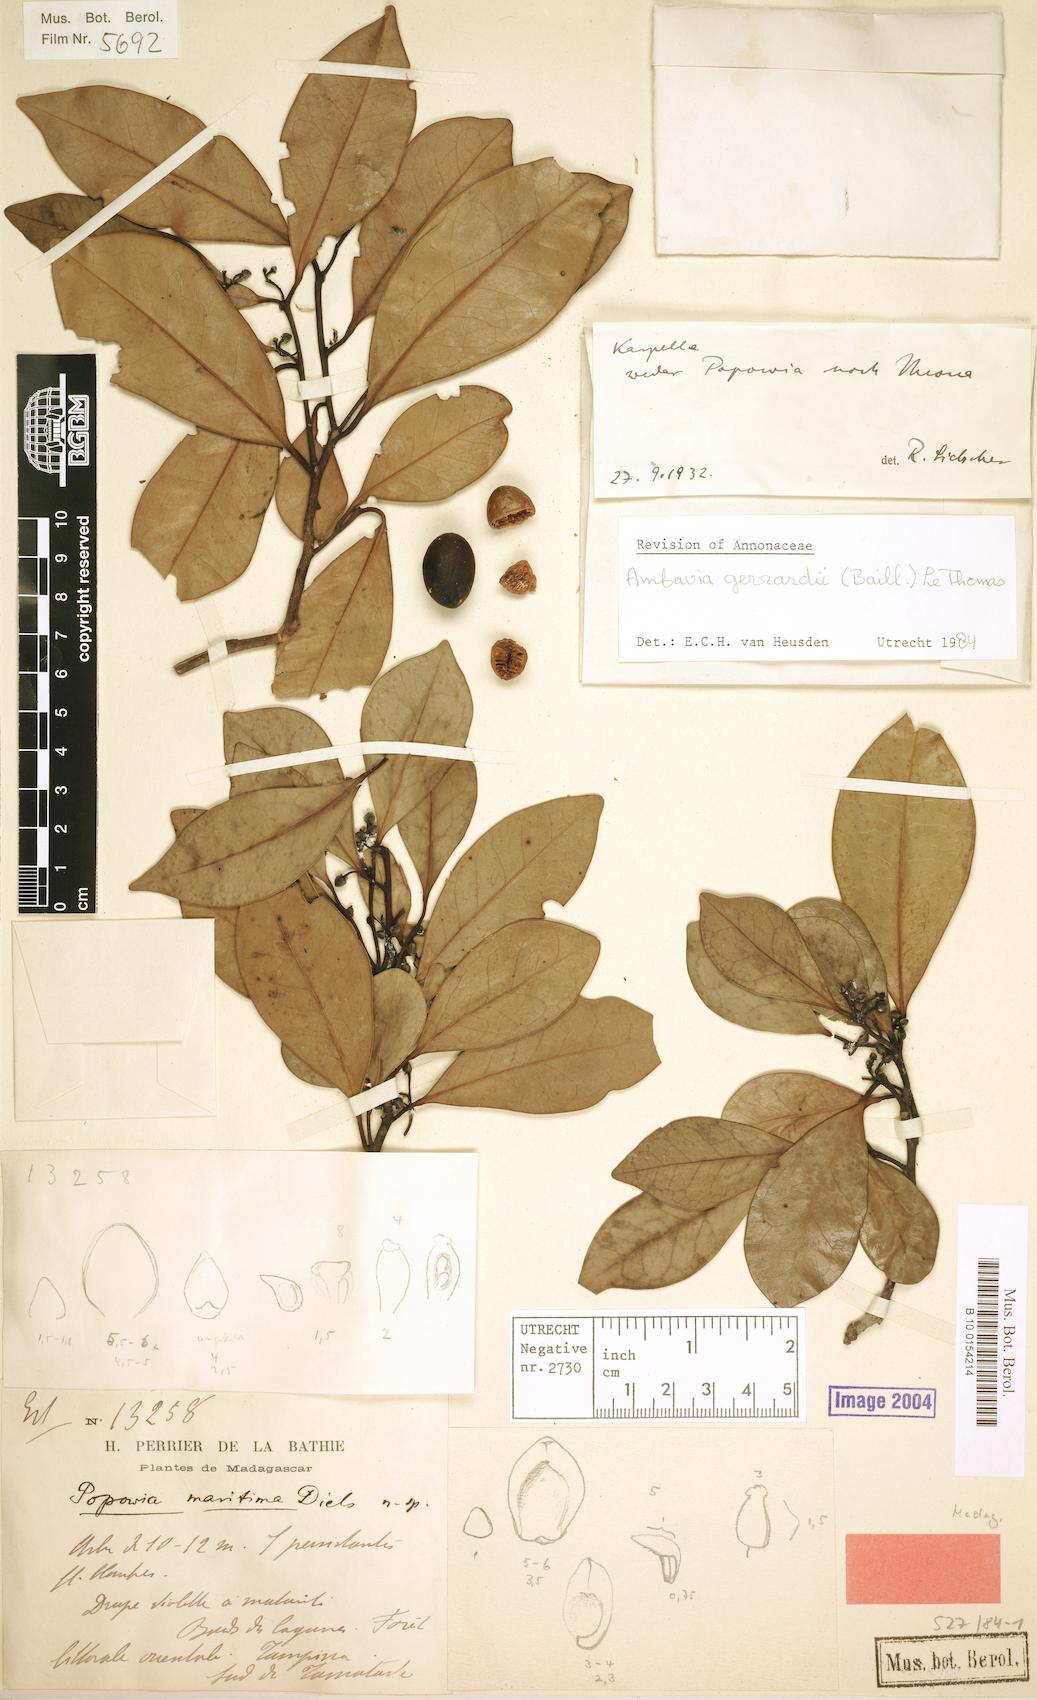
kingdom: Plantae
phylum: Tracheophyta
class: Magnoliopsida
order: Magnoliales
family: Annonaceae
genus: Ambavia
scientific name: Ambavia gerrardii
